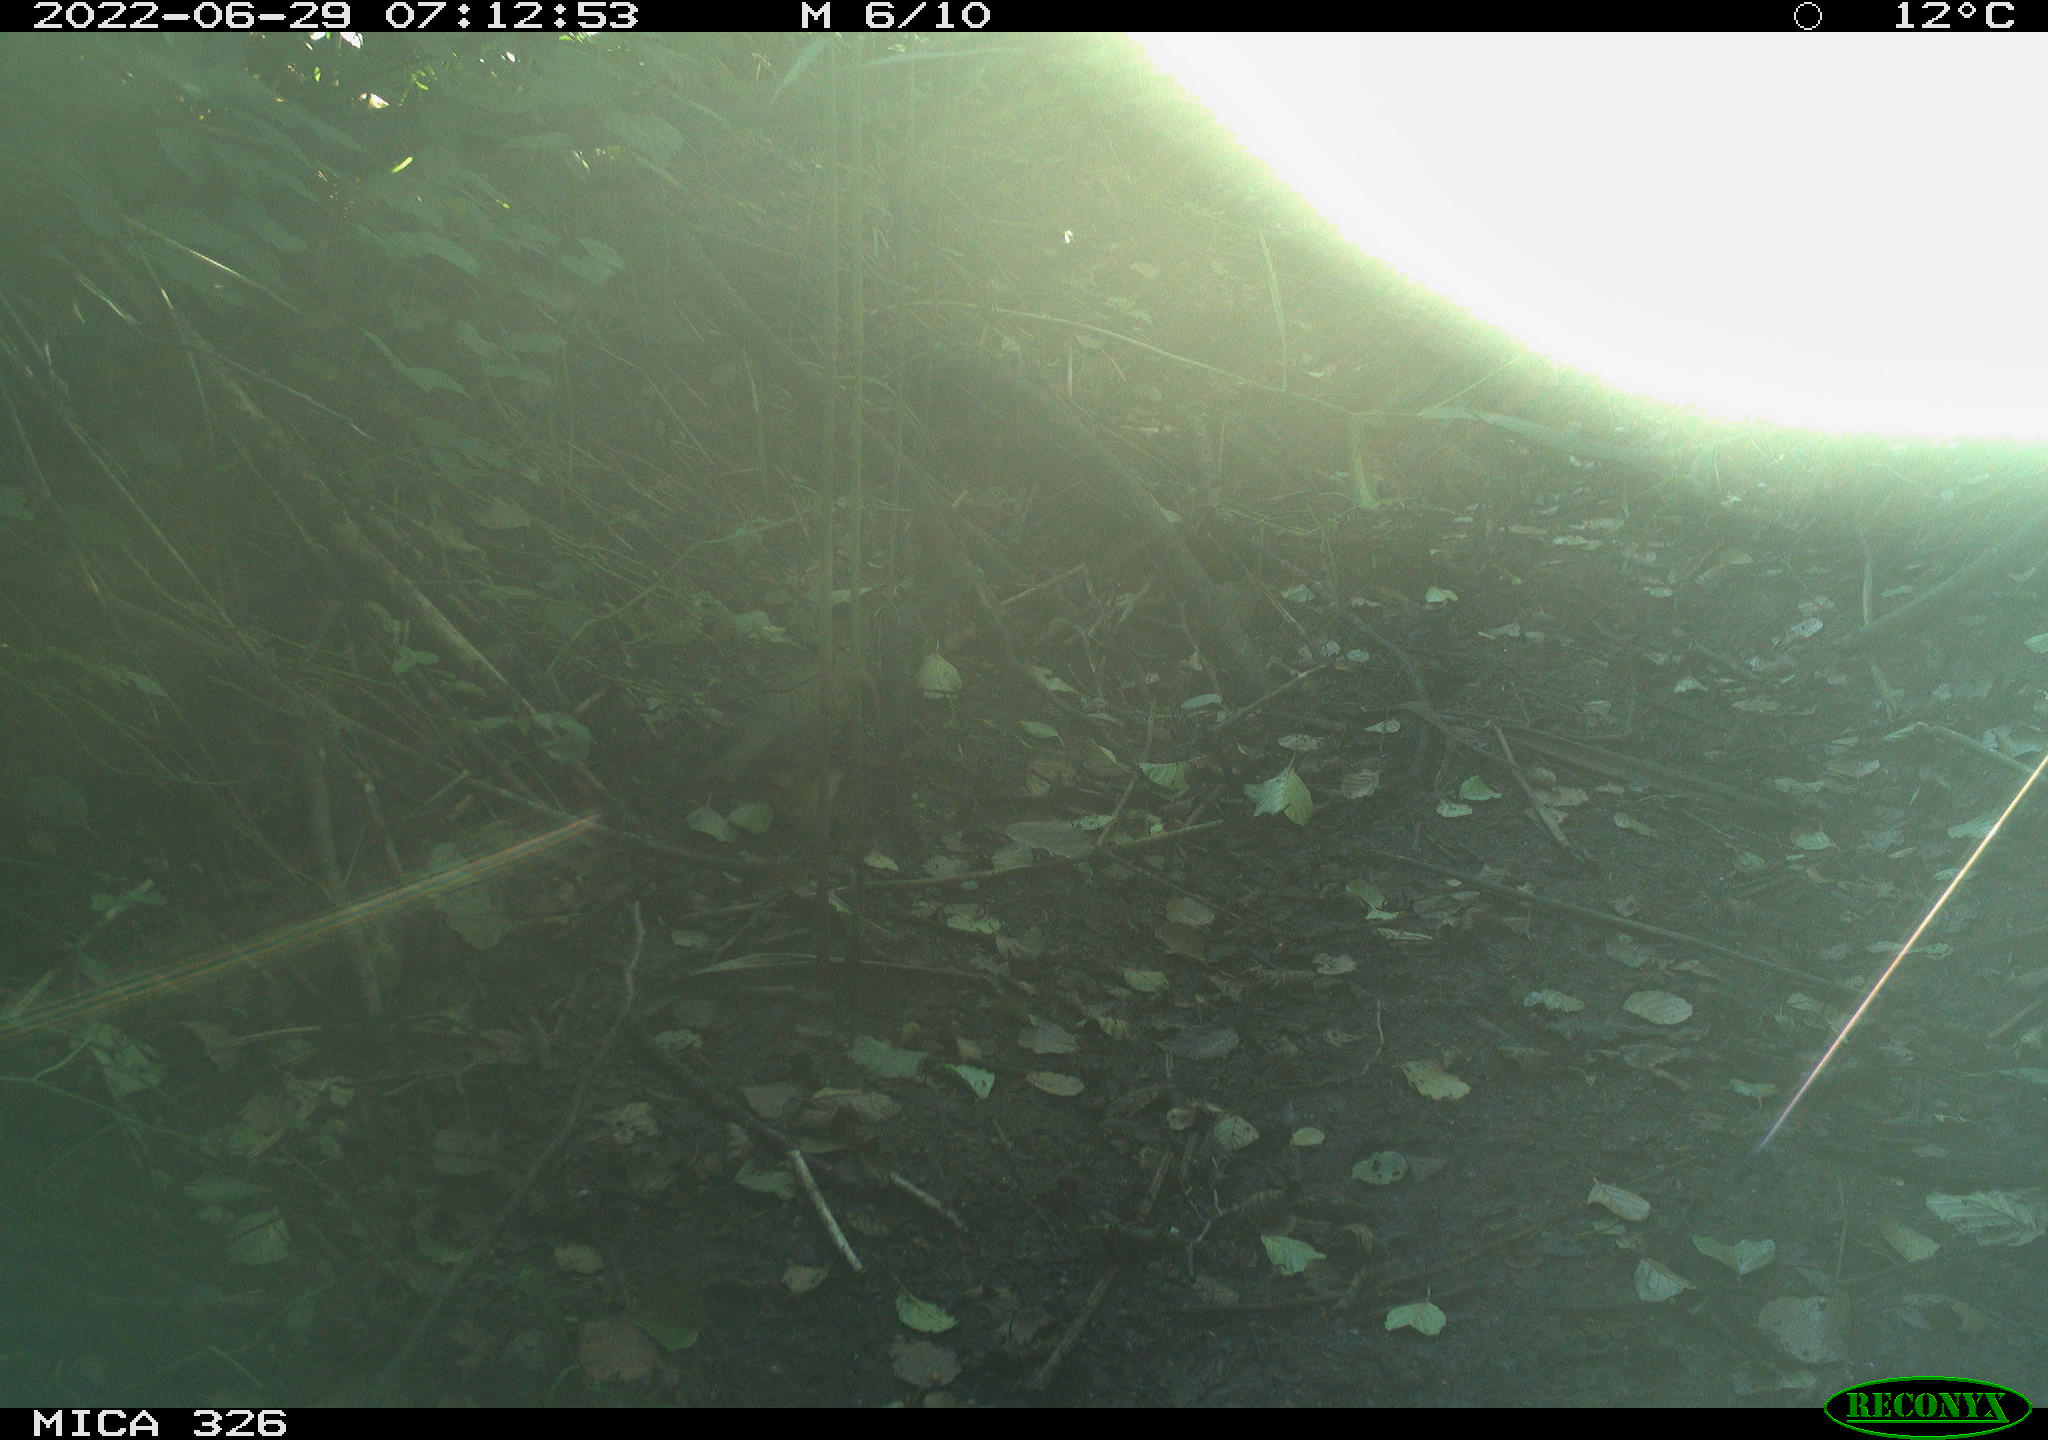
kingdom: Animalia
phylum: Chordata
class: Aves
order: Passeriformes
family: Turdidae
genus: Turdus
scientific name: Turdus
